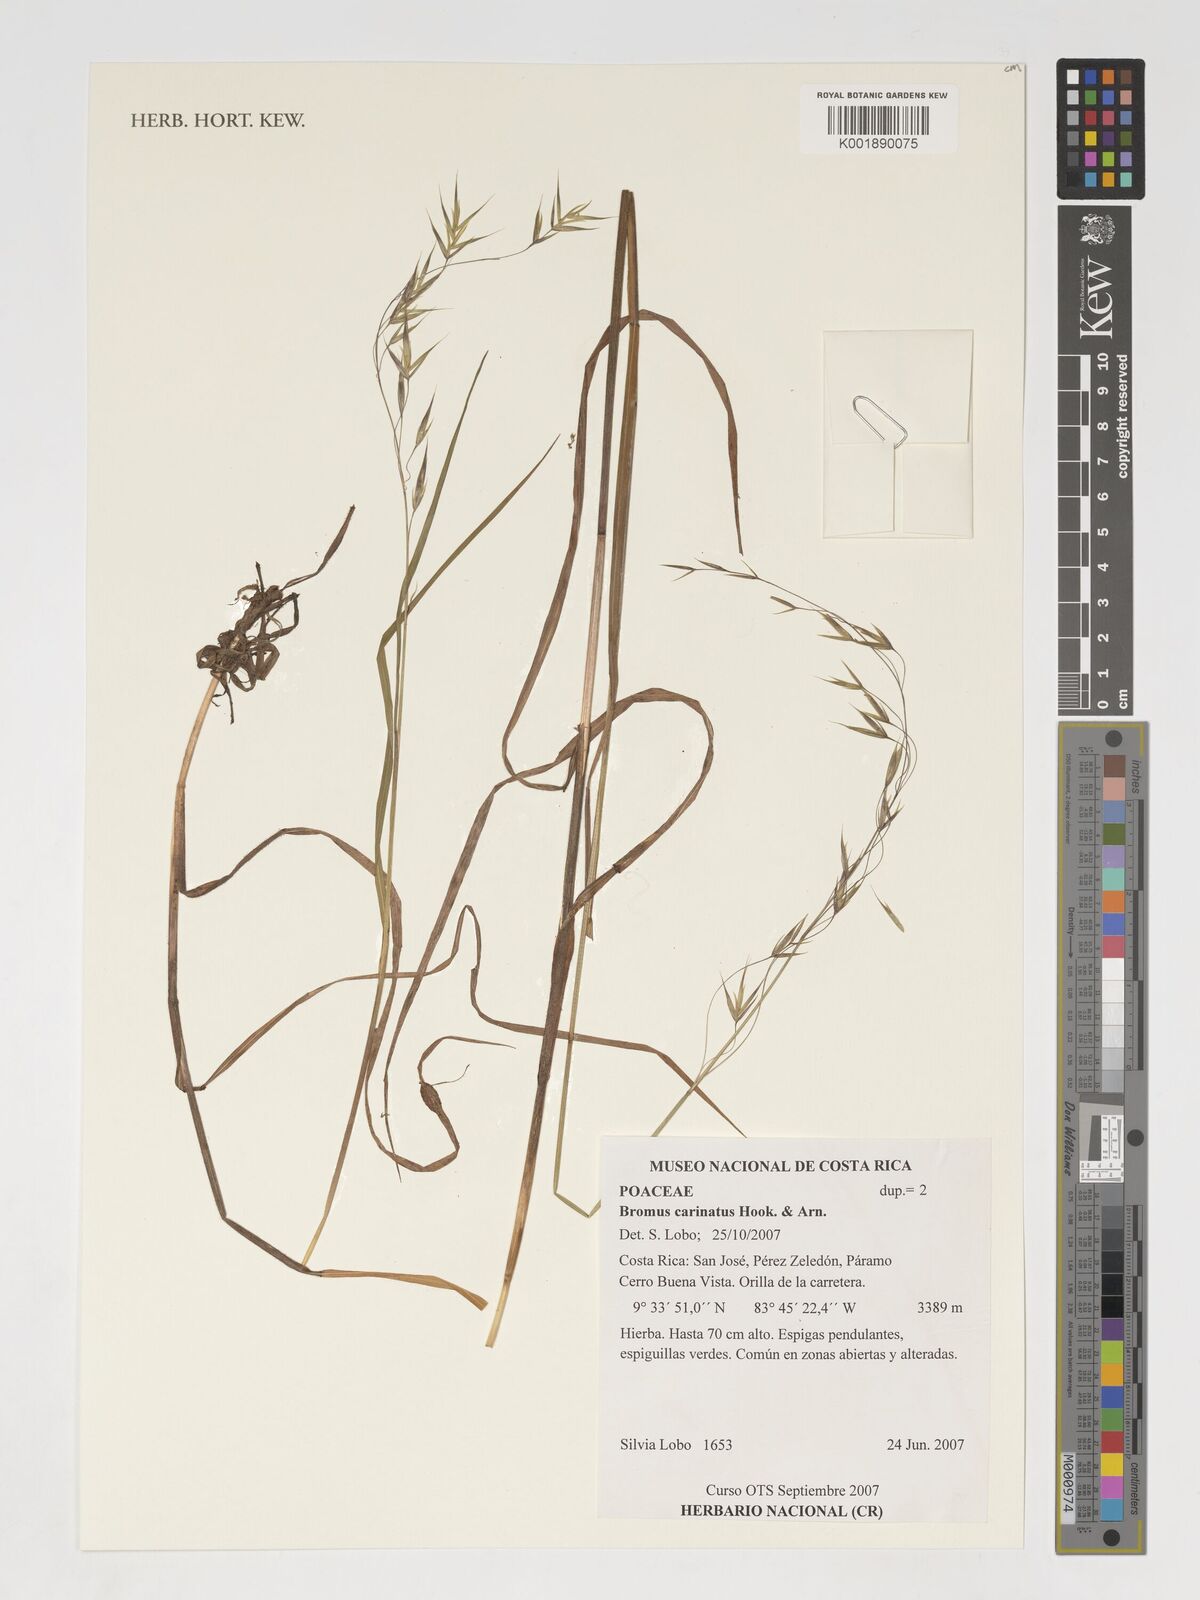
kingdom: Plantae
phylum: Tracheophyta
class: Liliopsida
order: Poales
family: Poaceae
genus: Bromus
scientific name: Bromus carinatus
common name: Mountain brome
